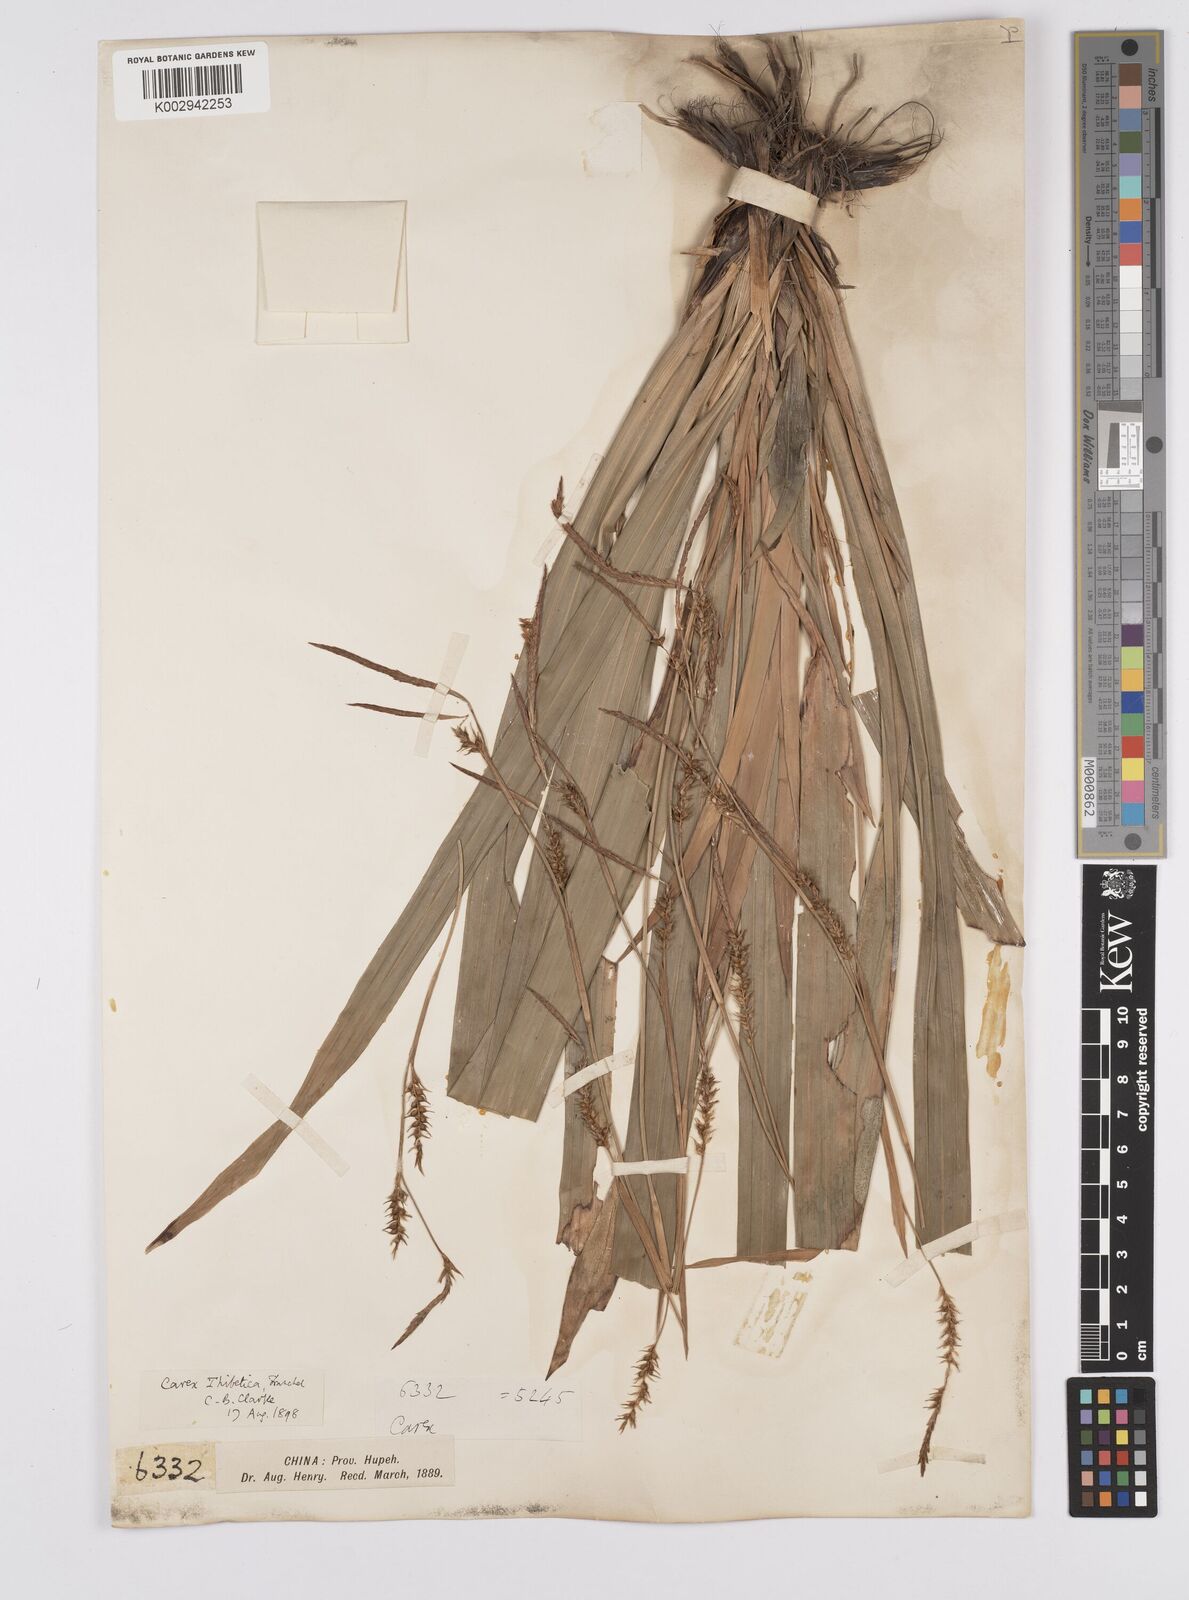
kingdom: Plantae
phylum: Tracheophyta
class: Liliopsida
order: Poales
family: Cyperaceae
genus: Carex
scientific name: Carex thibetica
